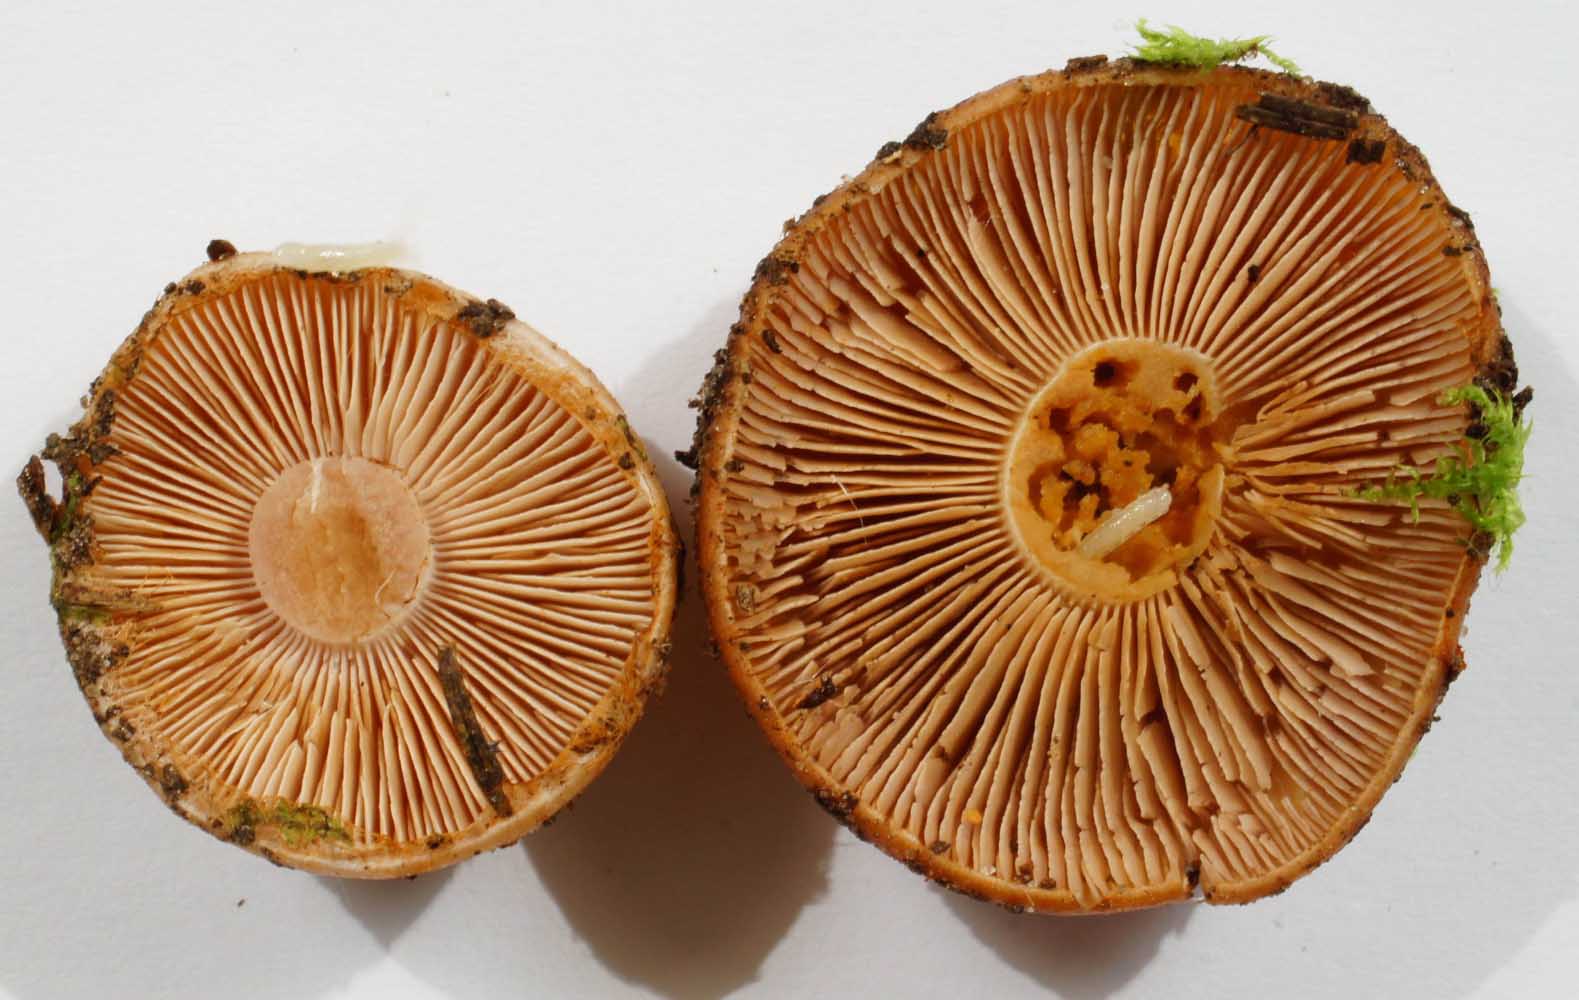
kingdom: Fungi
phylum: Basidiomycota
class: Agaricomycetes
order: Agaricales
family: Cortinariaceae
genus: Thaxterogaster
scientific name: Thaxterogaster multiformis
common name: honning-slørhat
